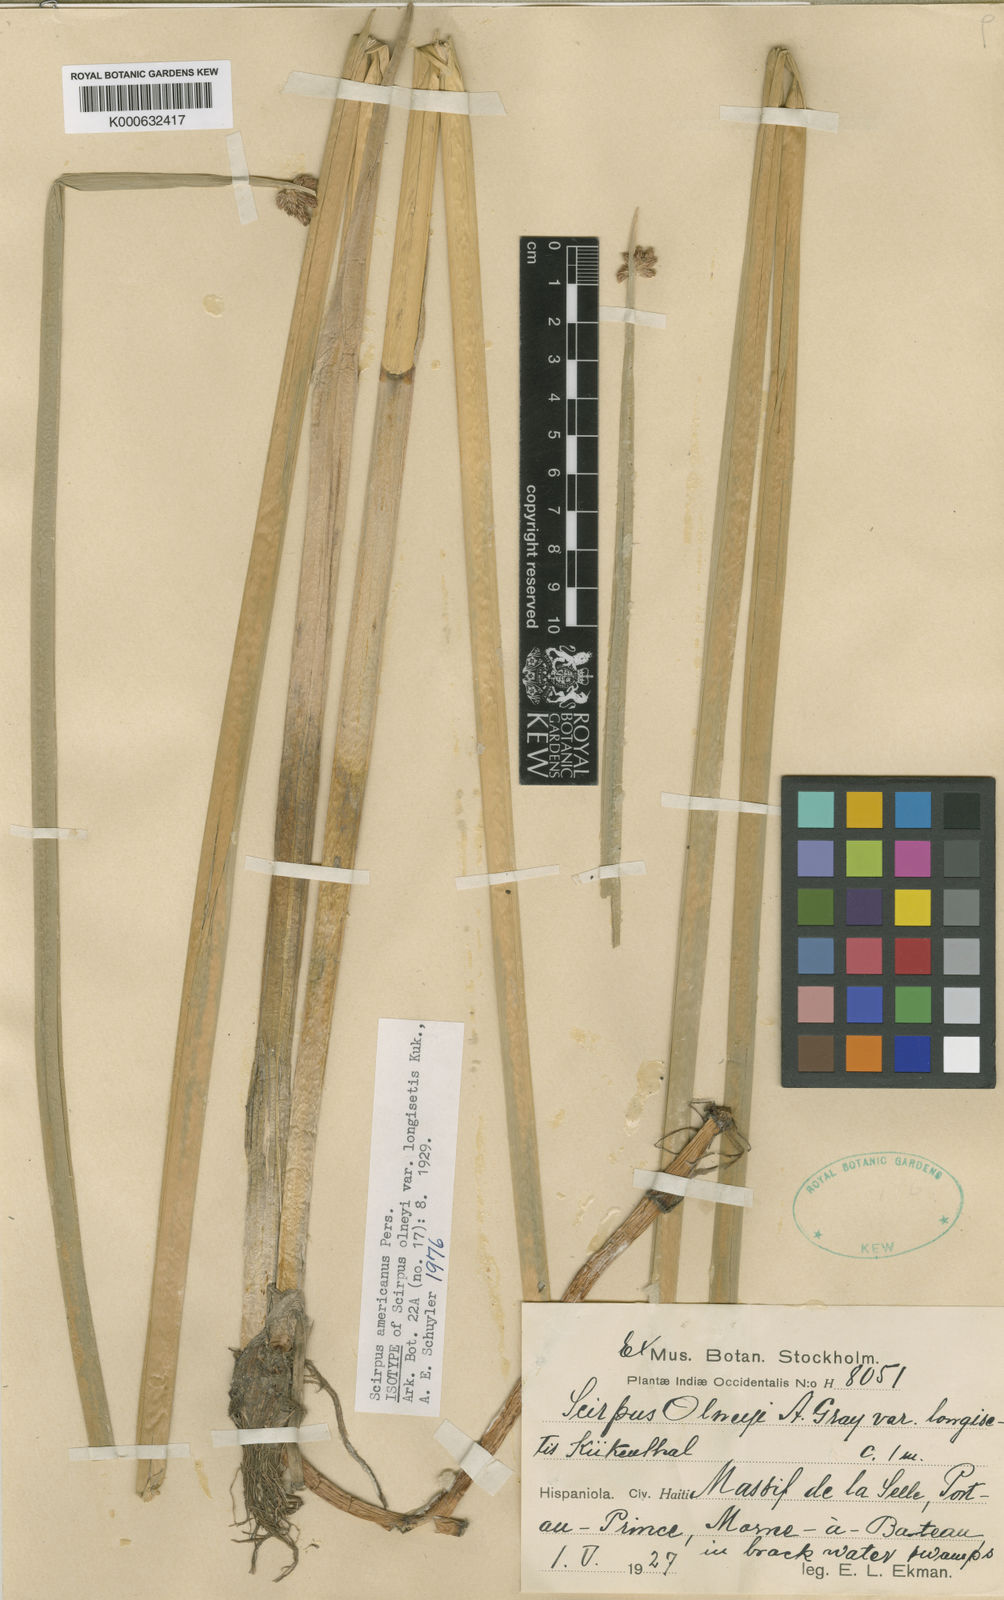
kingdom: Plantae
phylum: Tracheophyta
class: Liliopsida
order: Poales
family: Cyperaceae
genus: Schoenoplectus
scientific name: Schoenoplectus
